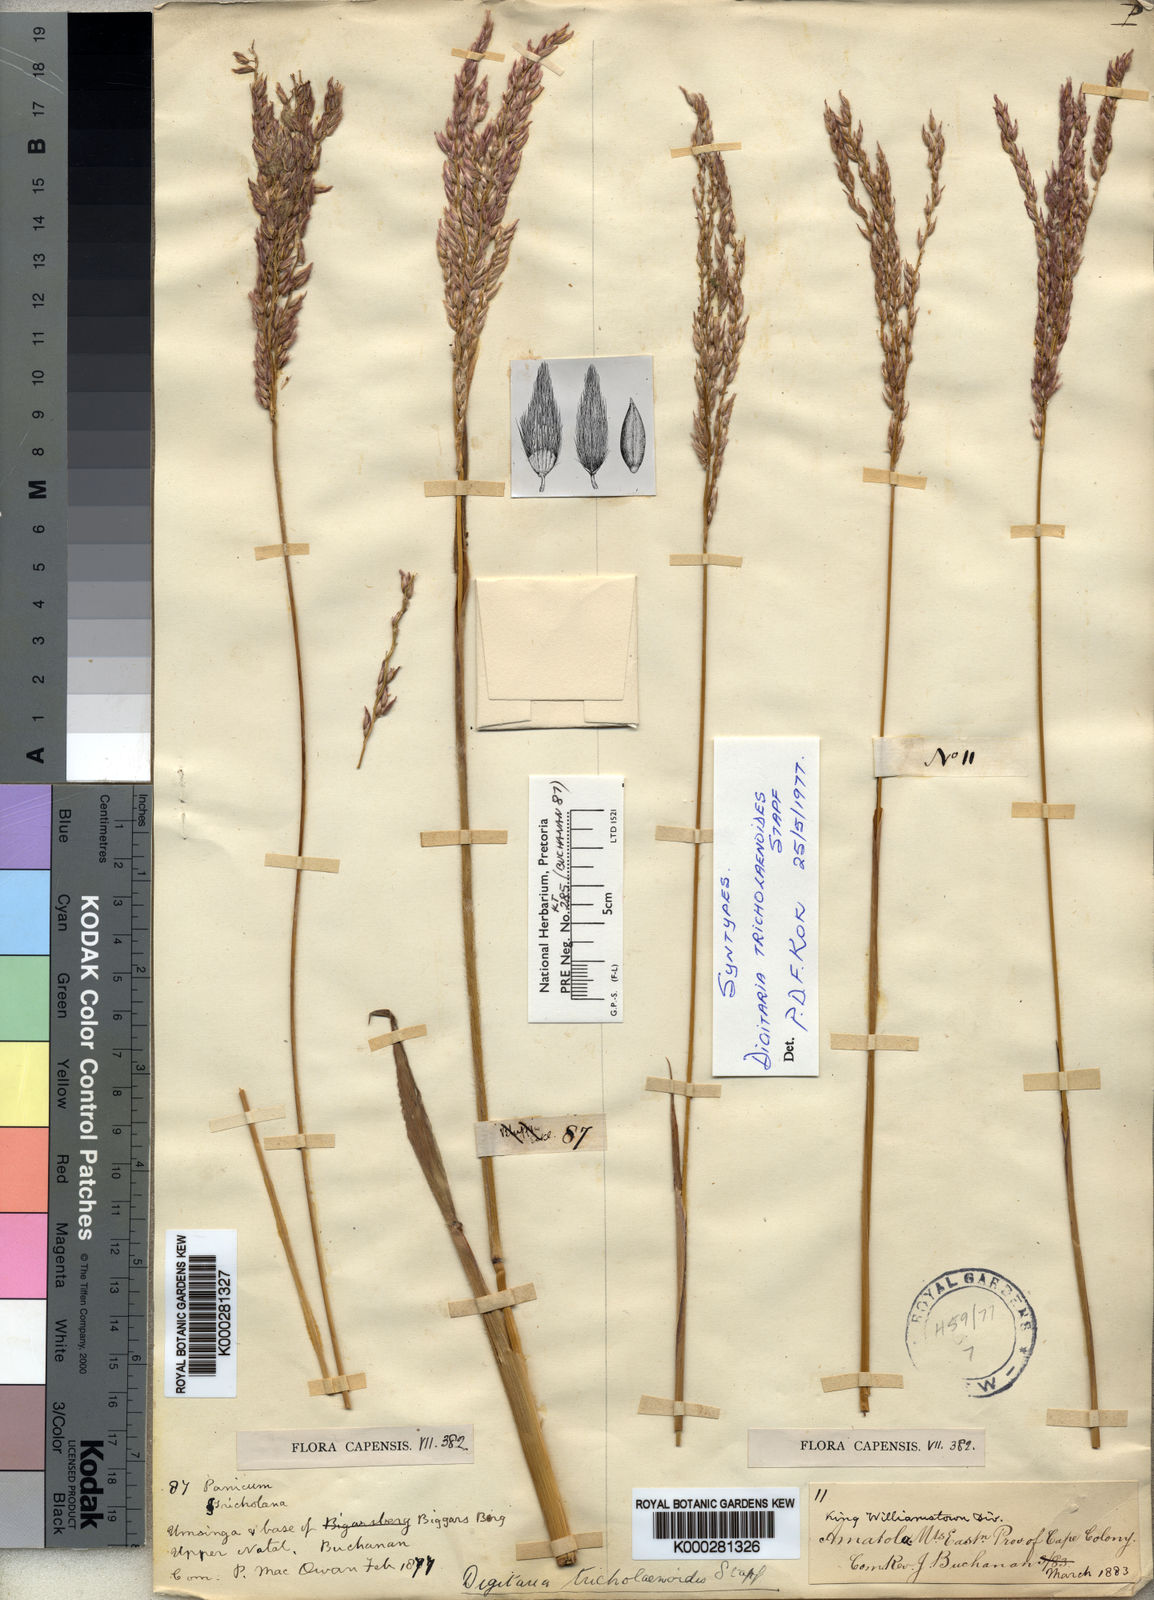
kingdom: Plantae
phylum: Tracheophyta
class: Liliopsida
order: Poales
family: Poaceae
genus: Digitaria
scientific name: Digitaria tricholaenoides
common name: Purple finger grass
